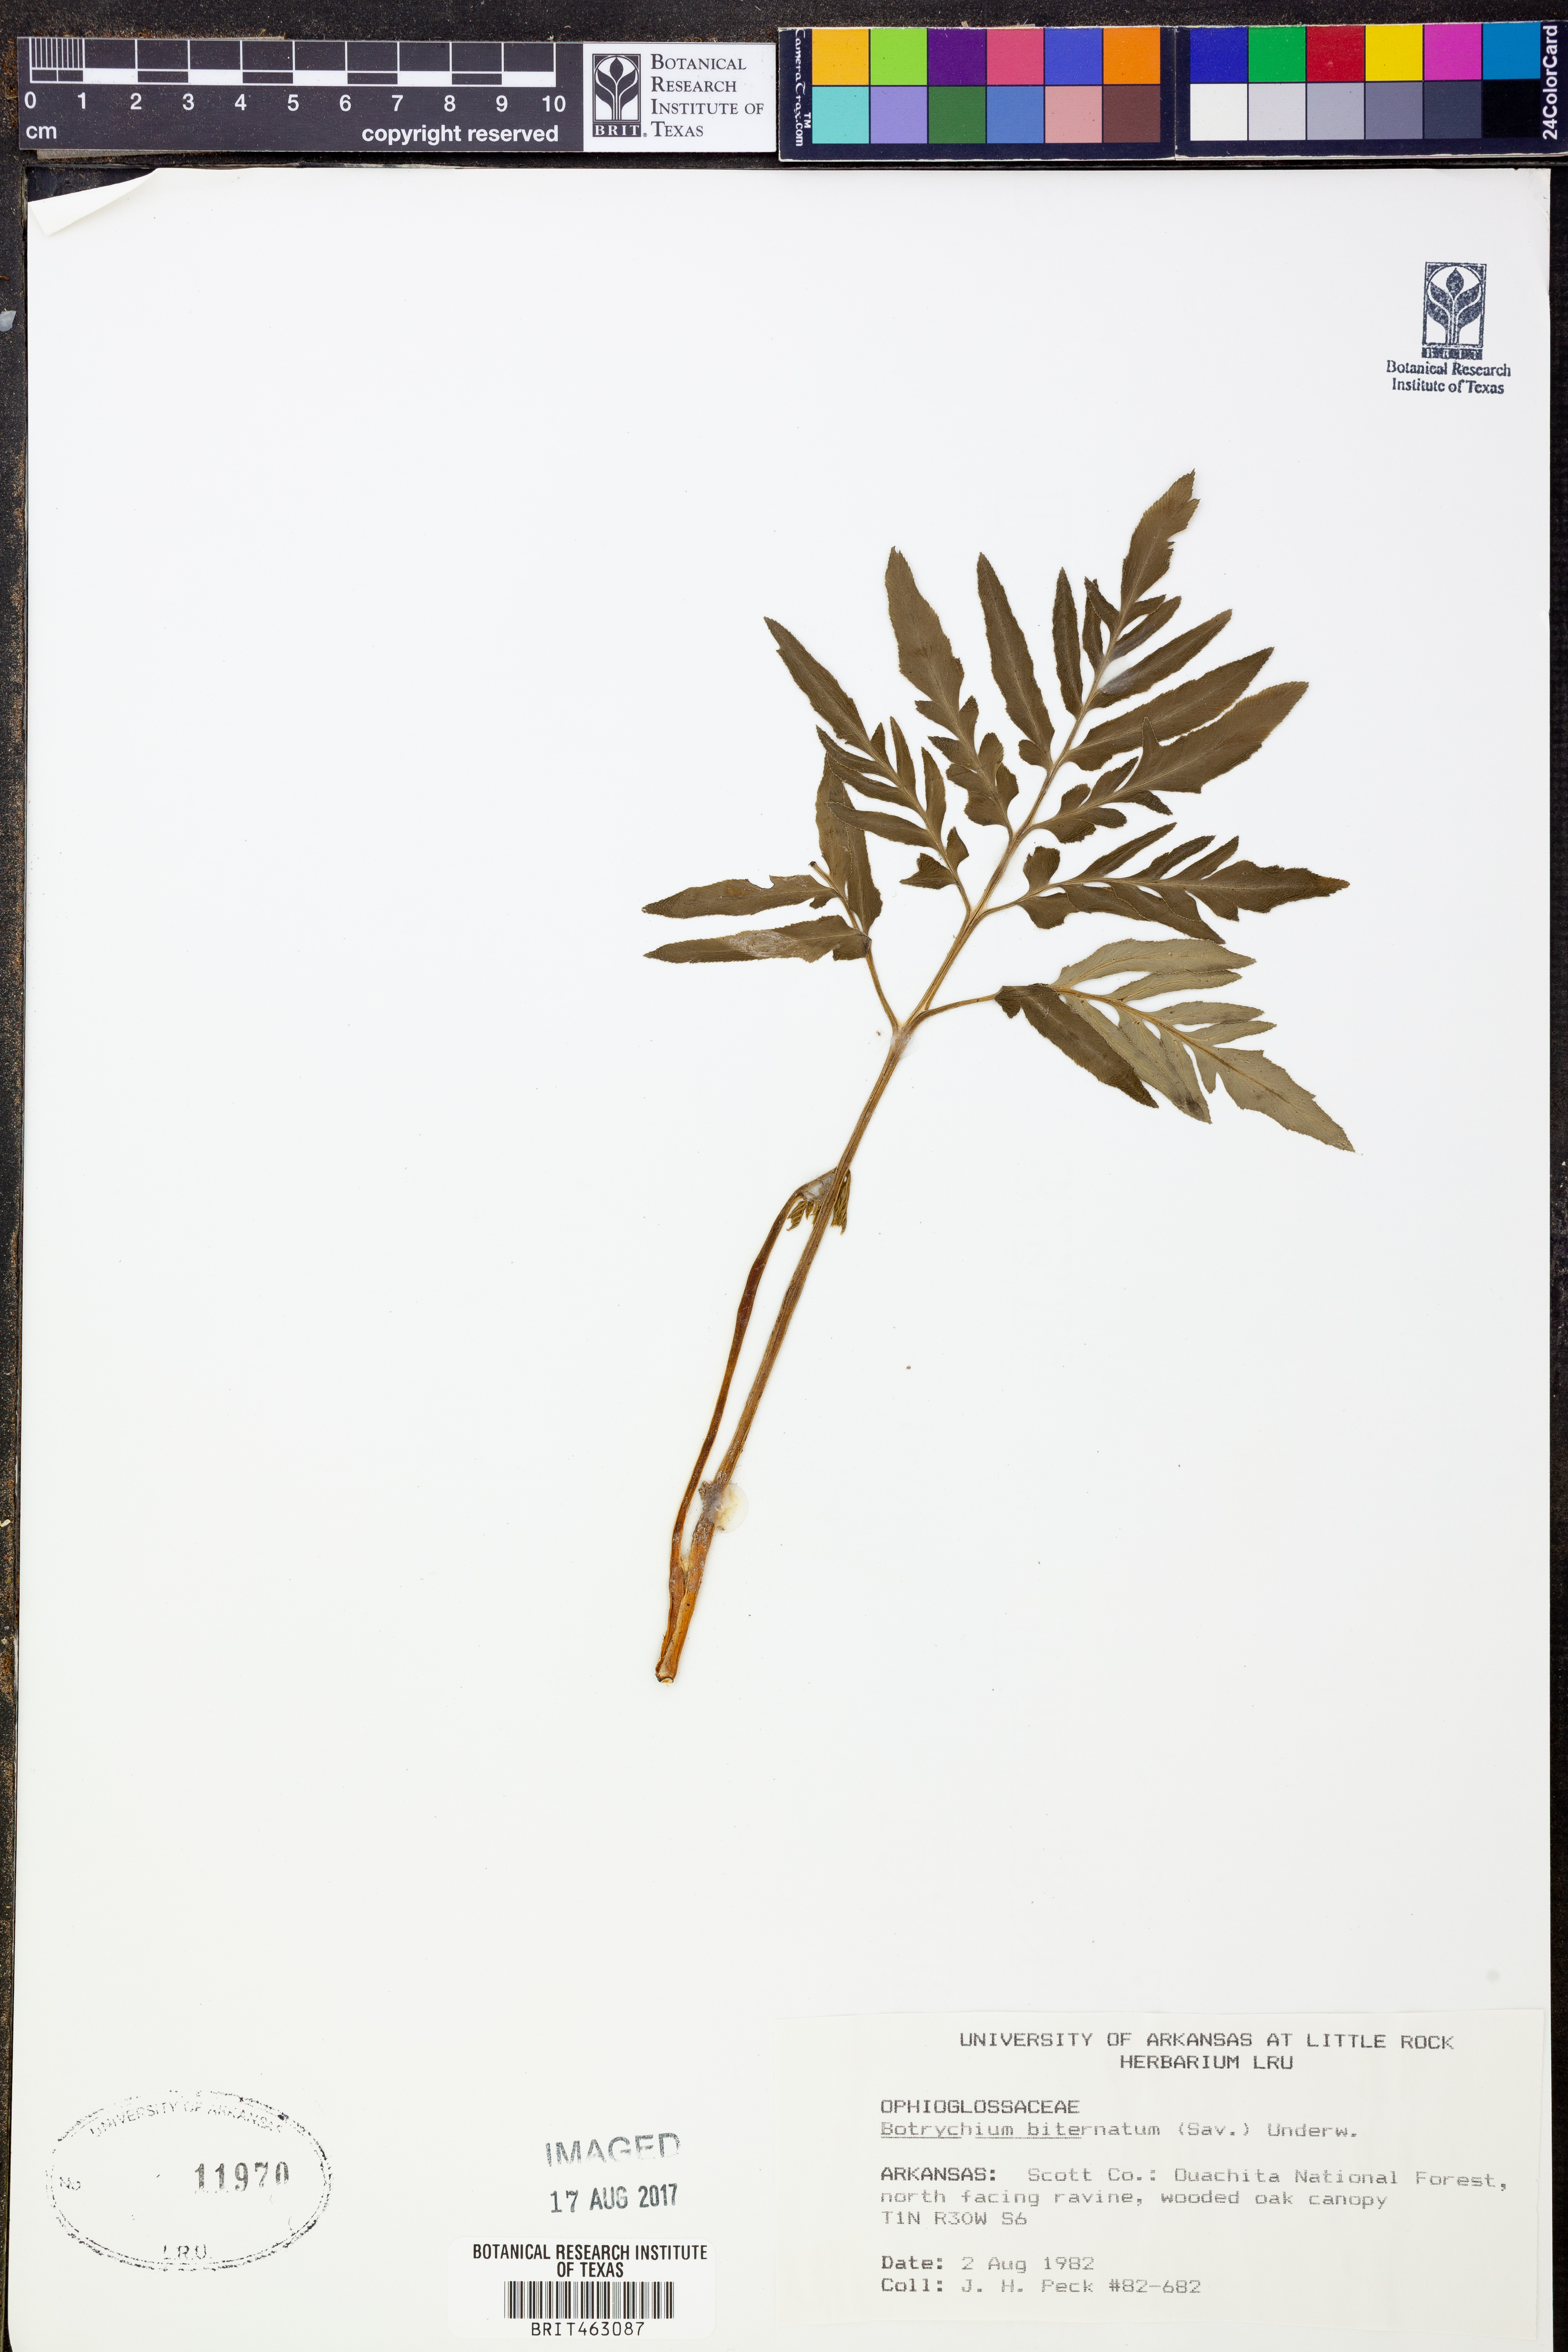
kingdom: Plantae
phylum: Tracheophyta
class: Polypodiopsida
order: Ophioglossales
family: Ophioglossaceae
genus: Sceptridium
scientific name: Sceptridium biternatum
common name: Sparse-lobed grapefern
